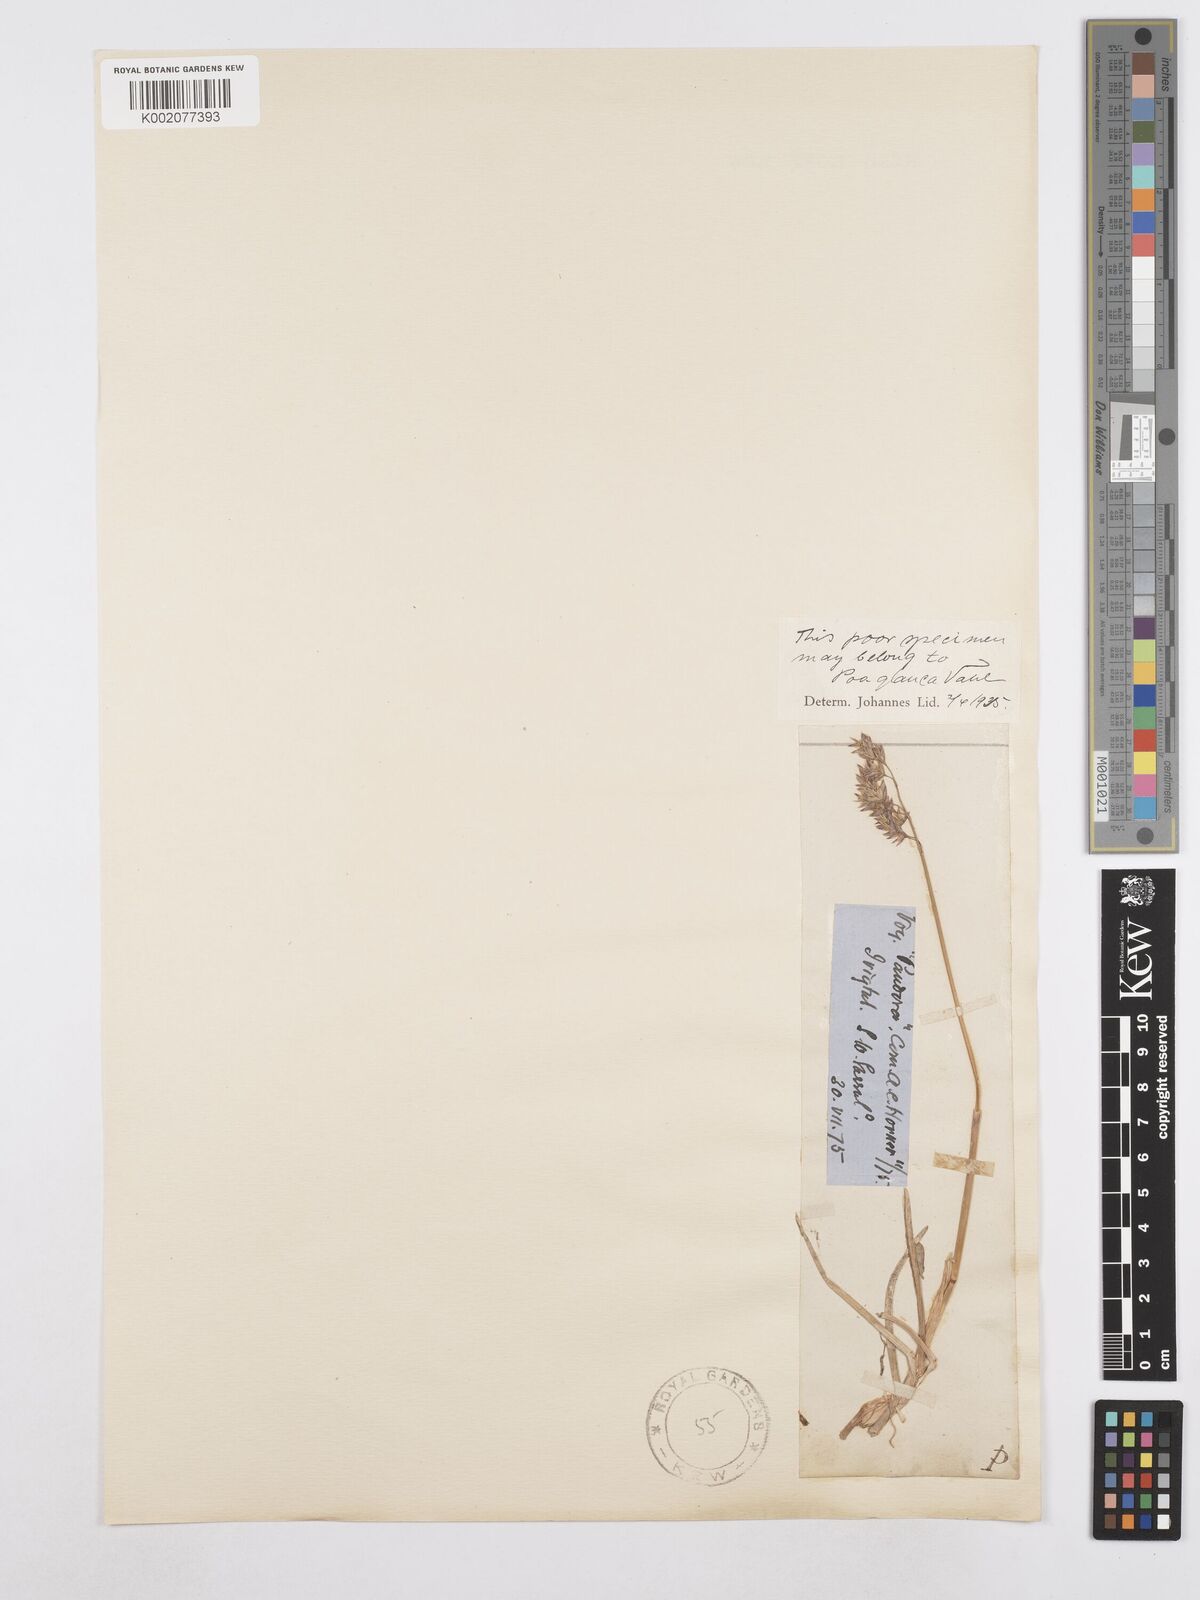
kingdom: Plantae
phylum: Tracheophyta
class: Liliopsida
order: Poales
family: Poaceae
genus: Poa
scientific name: Poa glauca
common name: Glaucous bluegrass
